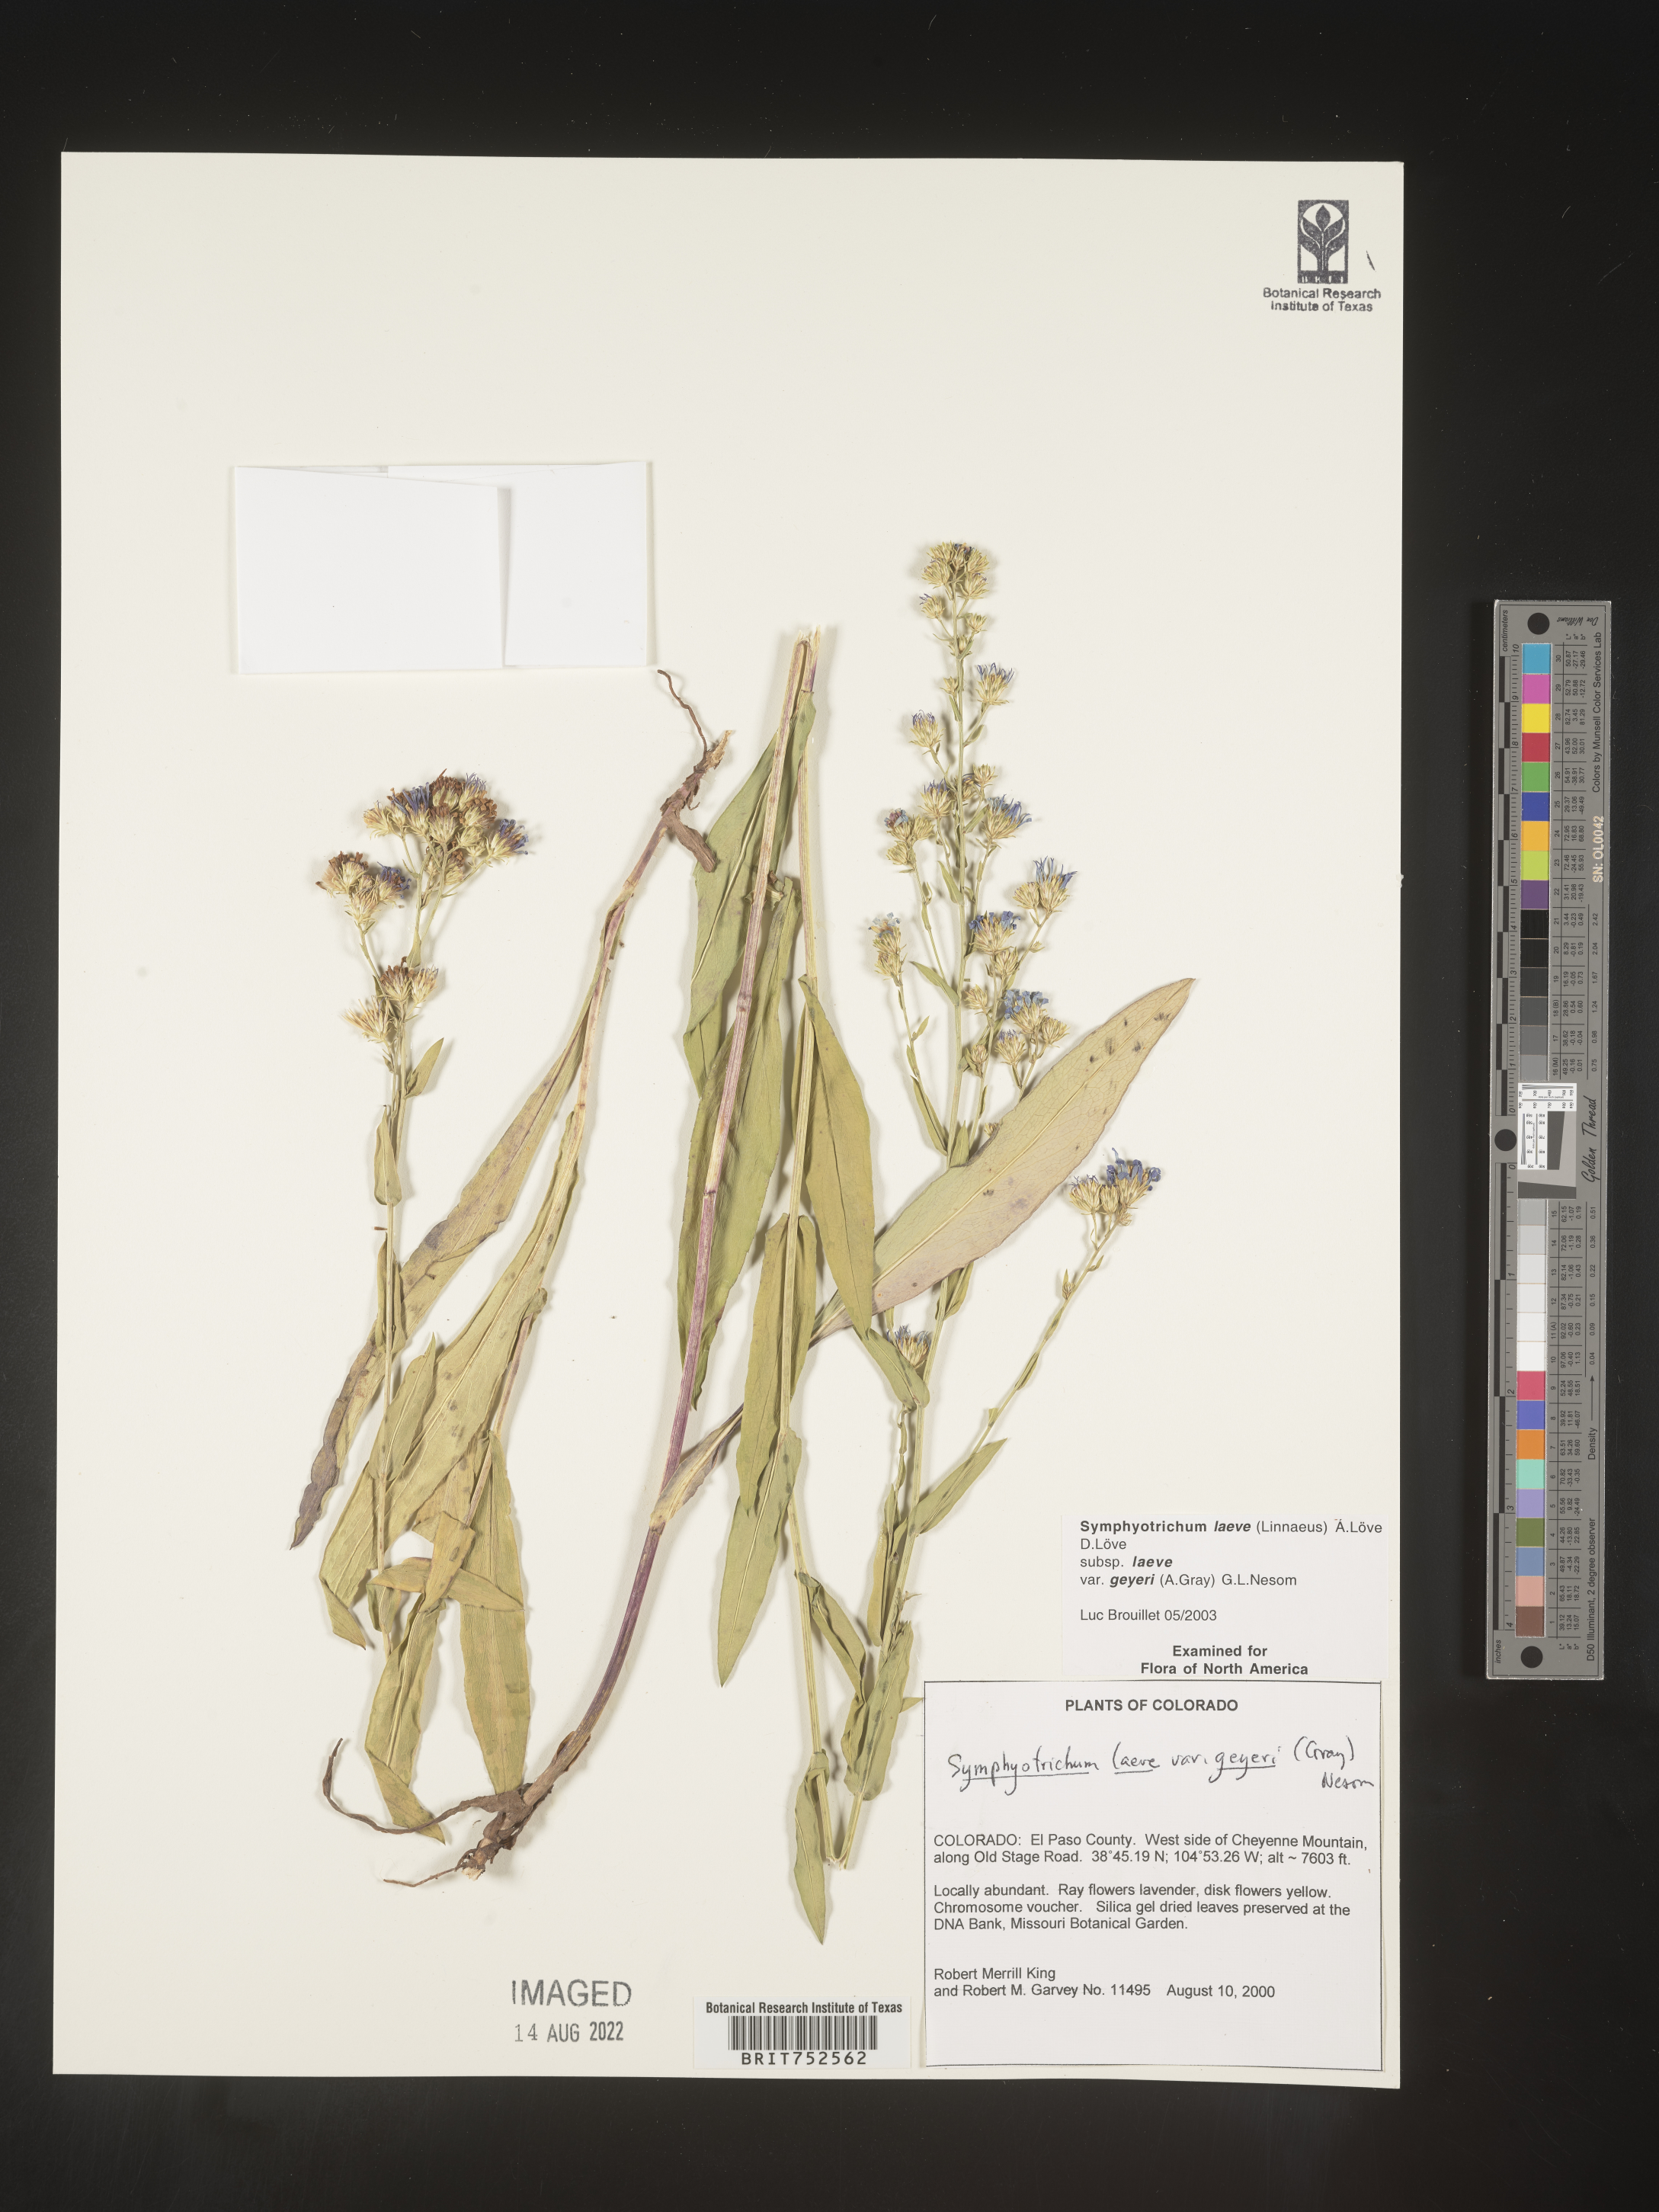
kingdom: Plantae
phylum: Tracheophyta
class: Magnoliopsida
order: Asterales
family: Asteraceae
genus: Symphyotrichum
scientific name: Symphyotrichum laeve
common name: Glaucous aster
